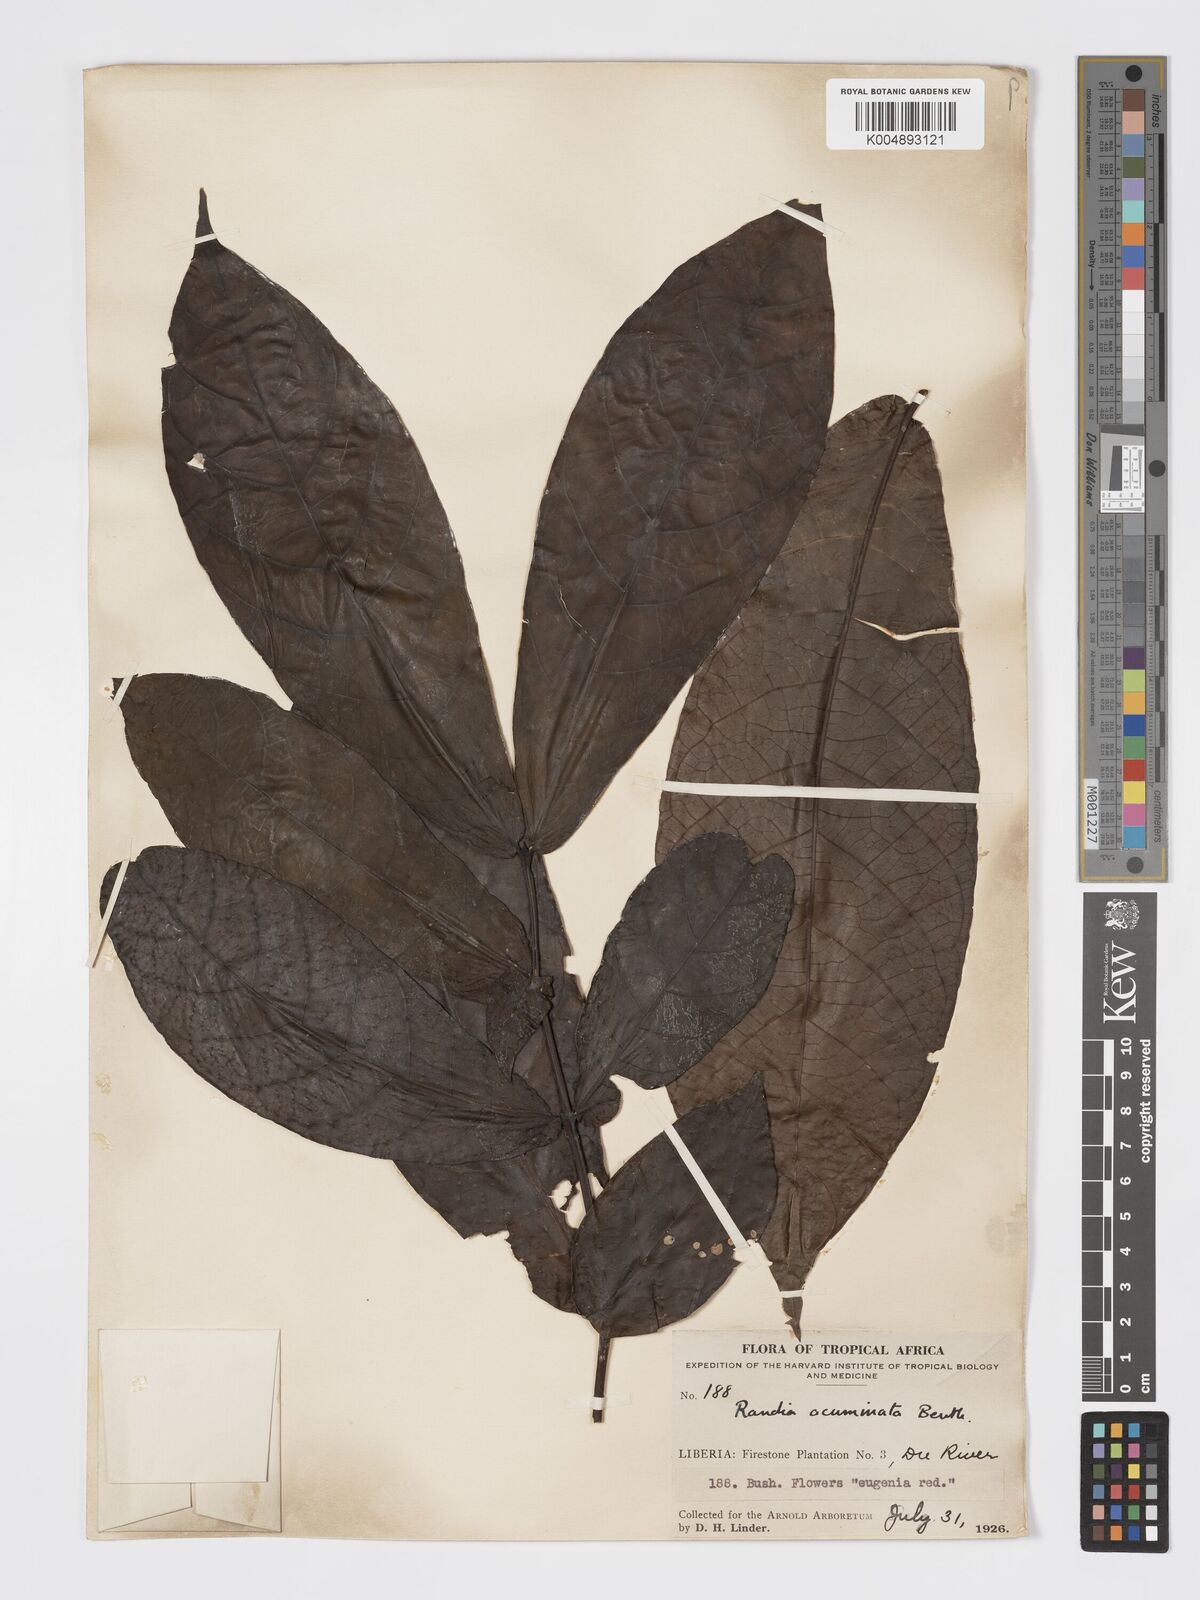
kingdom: Plantae
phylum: Tracheophyta
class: Magnoliopsida
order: Gentianales
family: Rubiaceae
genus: Massularia
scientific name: Massularia acuminata
